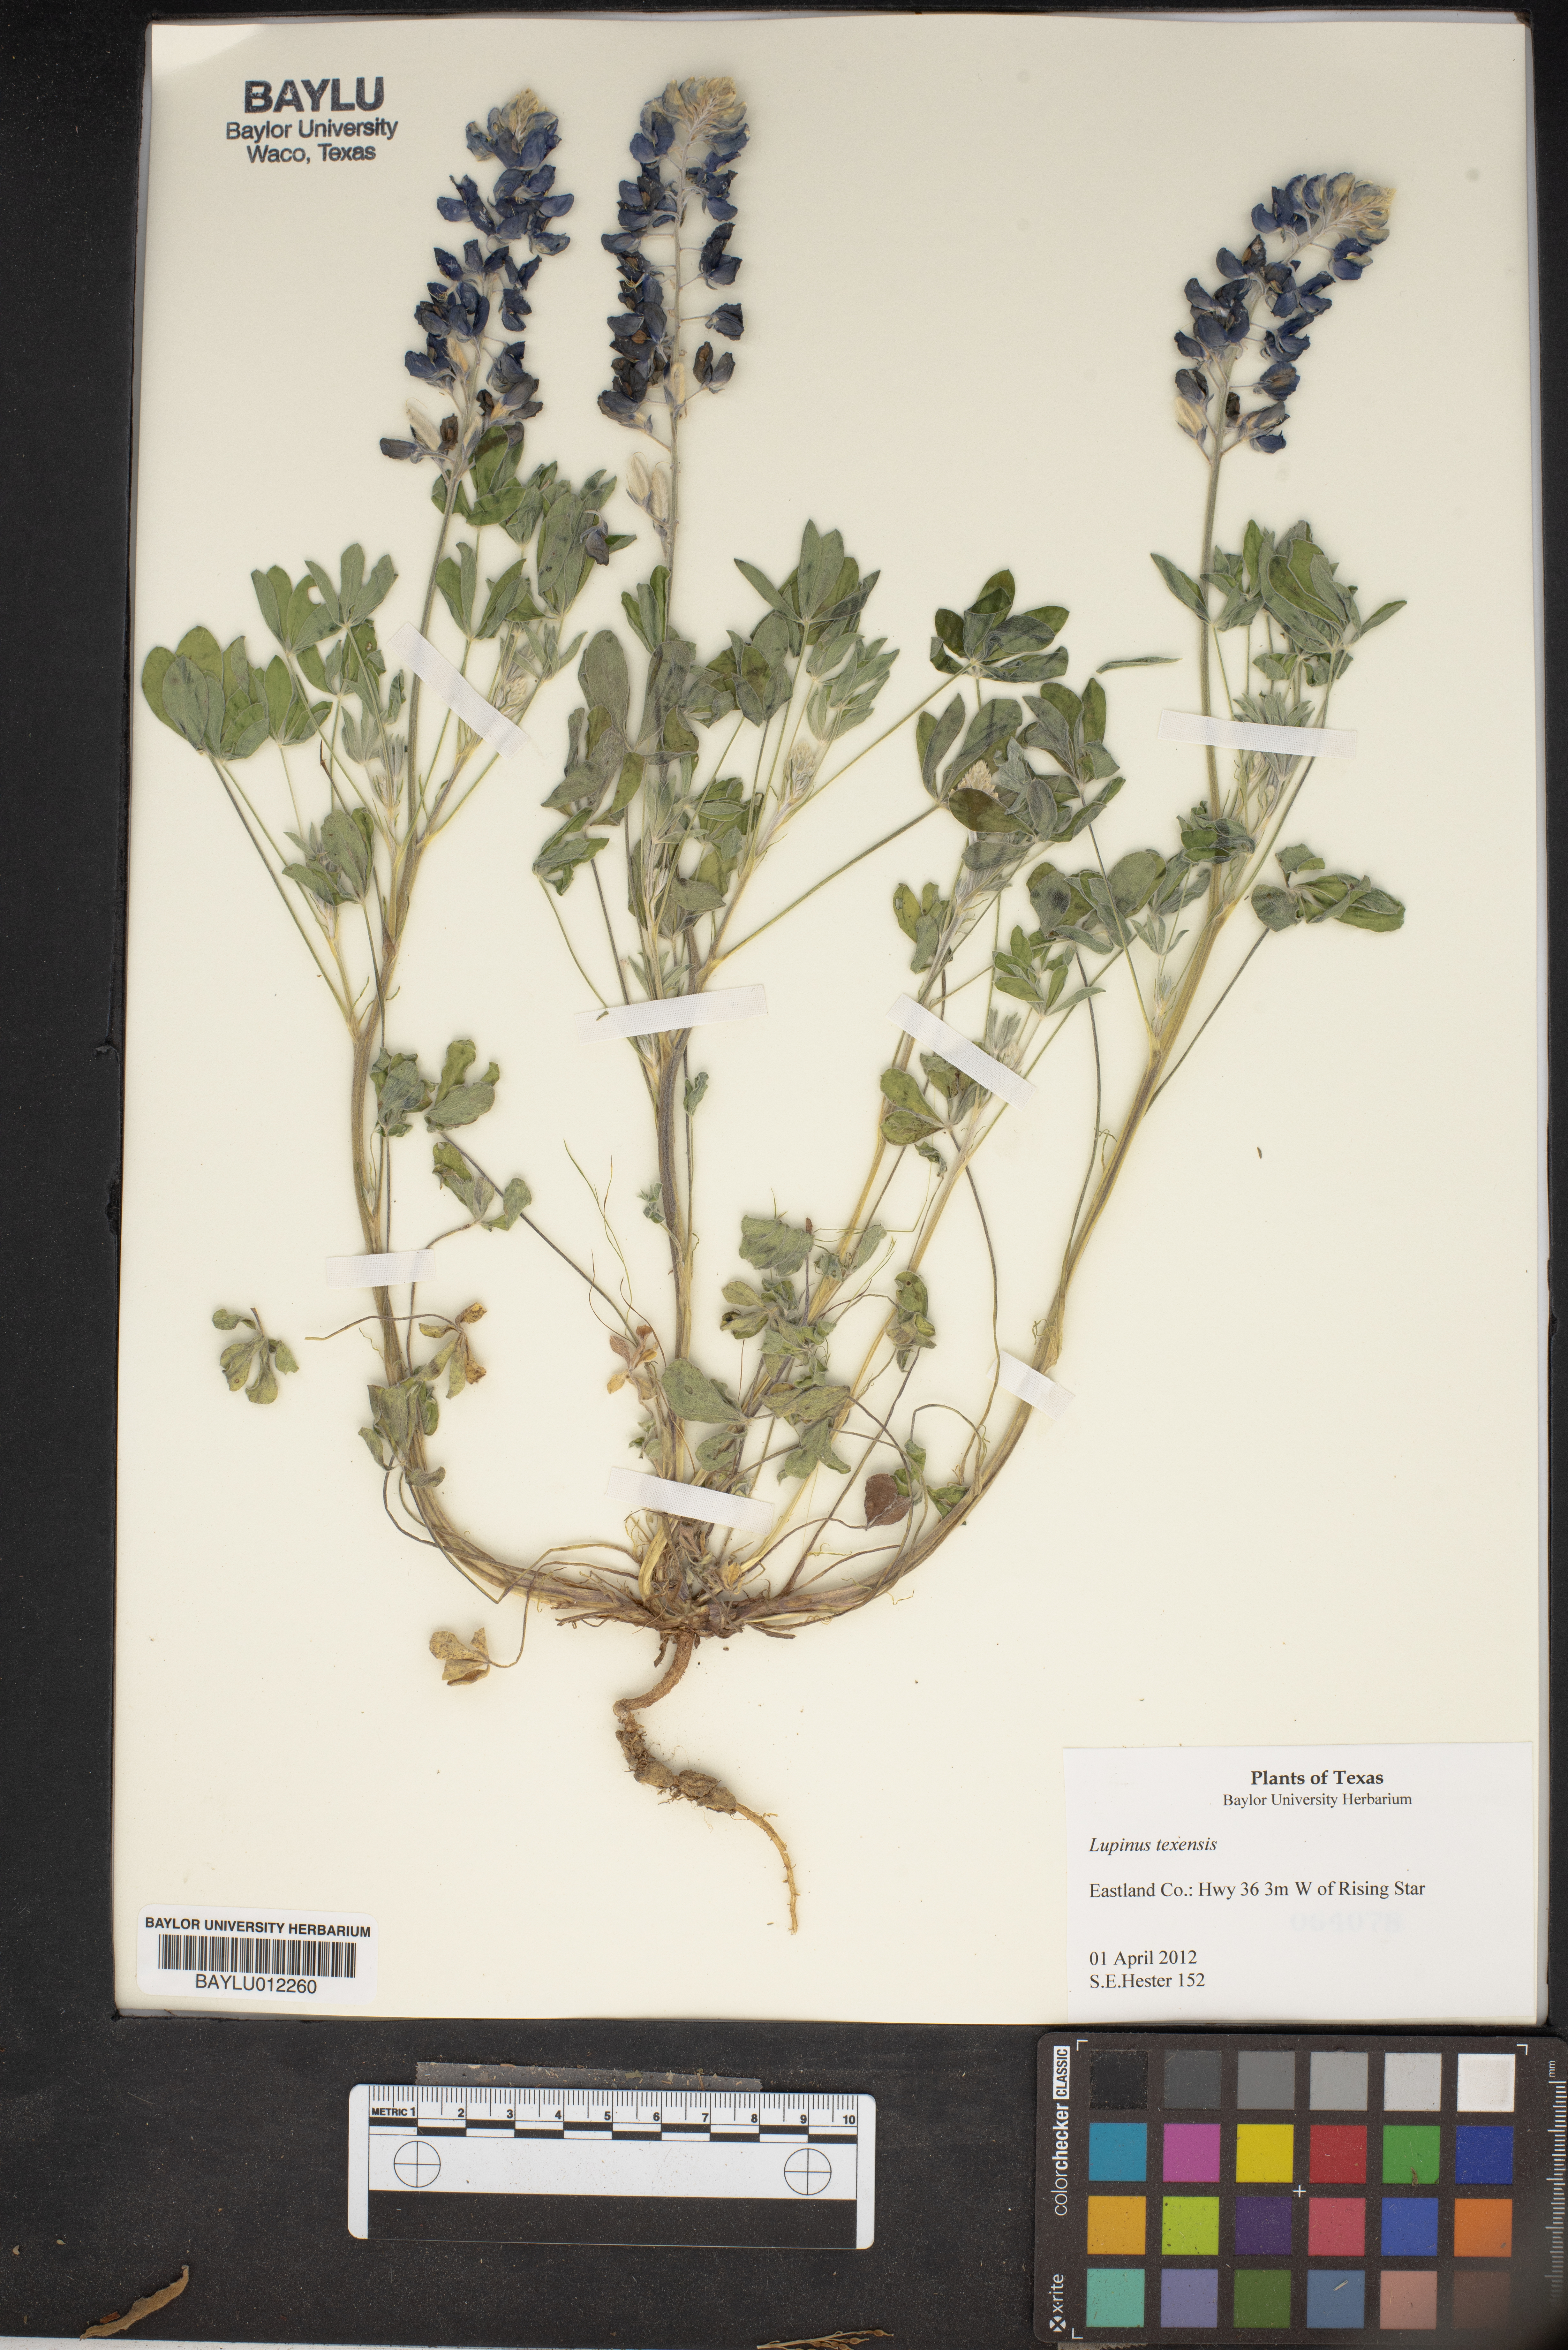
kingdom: Plantae
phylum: Tracheophyta
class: Magnoliopsida
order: Fabales
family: Fabaceae
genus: Lupinus
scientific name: Lupinus texensis
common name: Texas bluebonnet
